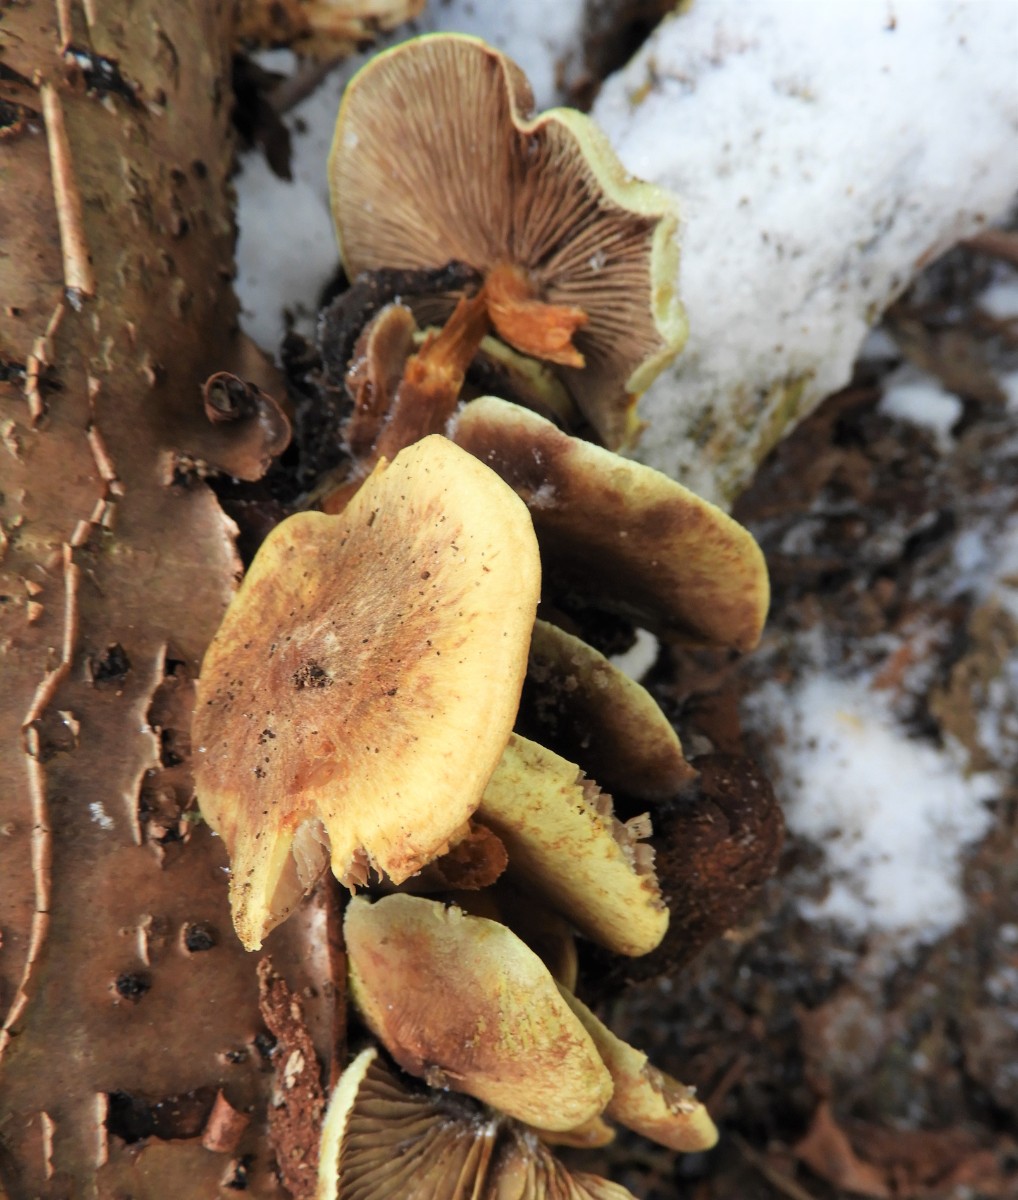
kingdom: Fungi
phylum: Basidiomycota
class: Agaricomycetes
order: Agaricales
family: Strophariaceae
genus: Hypholoma
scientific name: Hypholoma fasciculare
